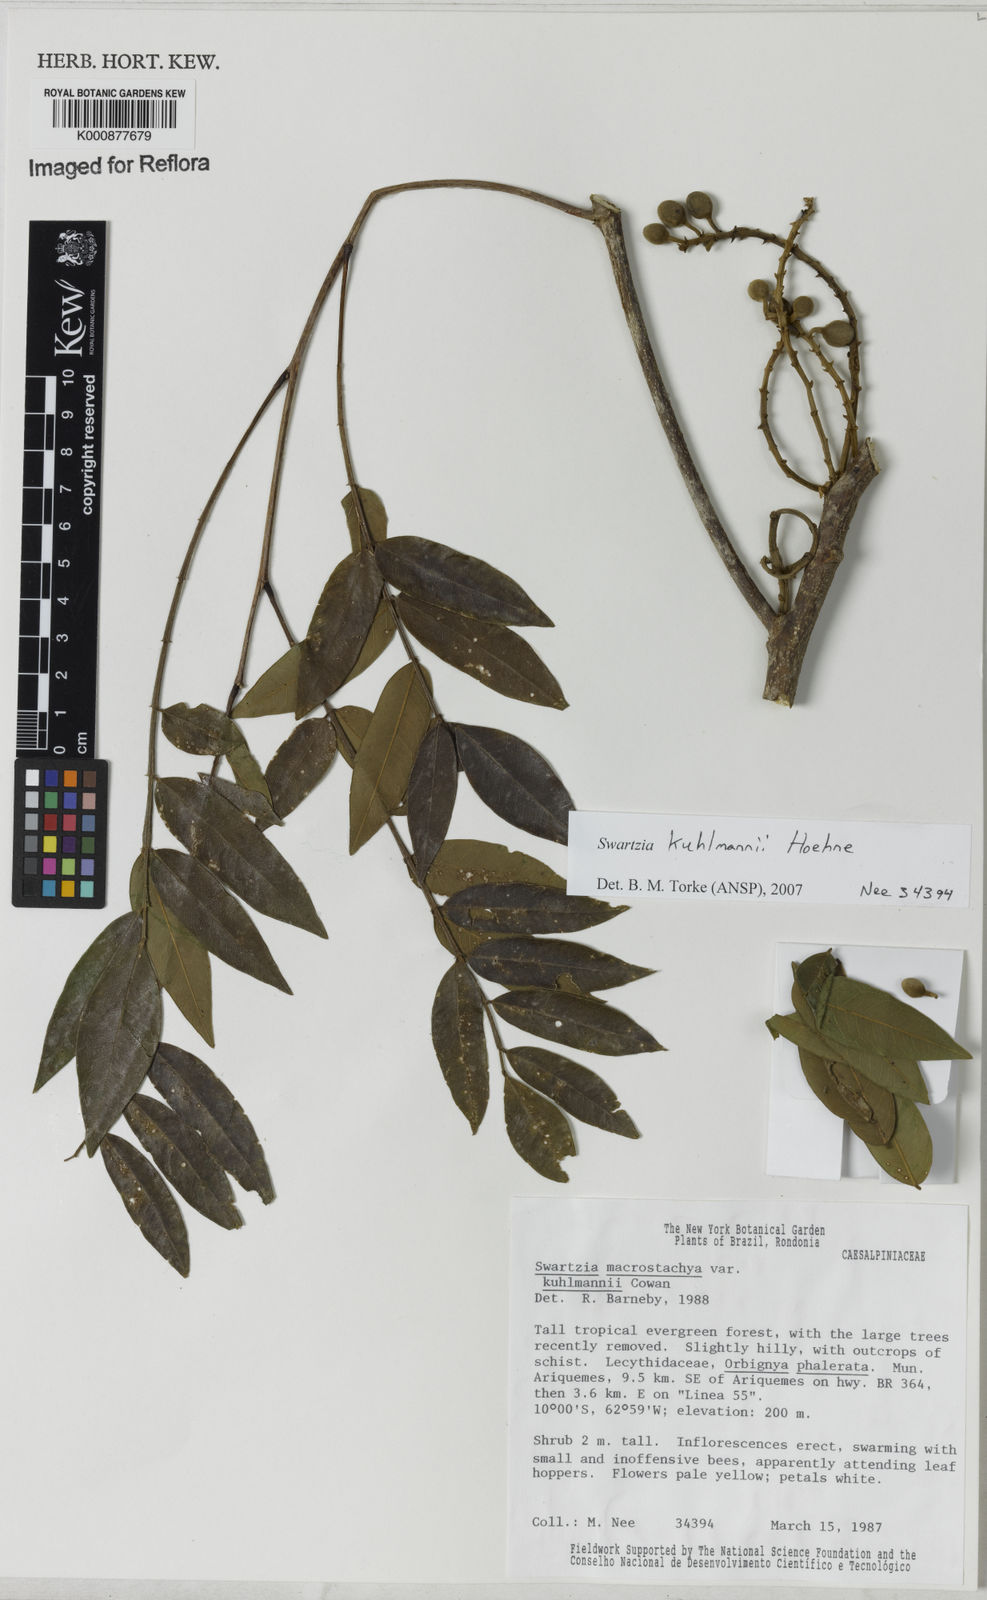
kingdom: Plantae
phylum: Tracheophyta
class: Magnoliopsida
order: Fabales
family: Fabaceae
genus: Swartzia
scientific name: Swartzia kuhlmannii
